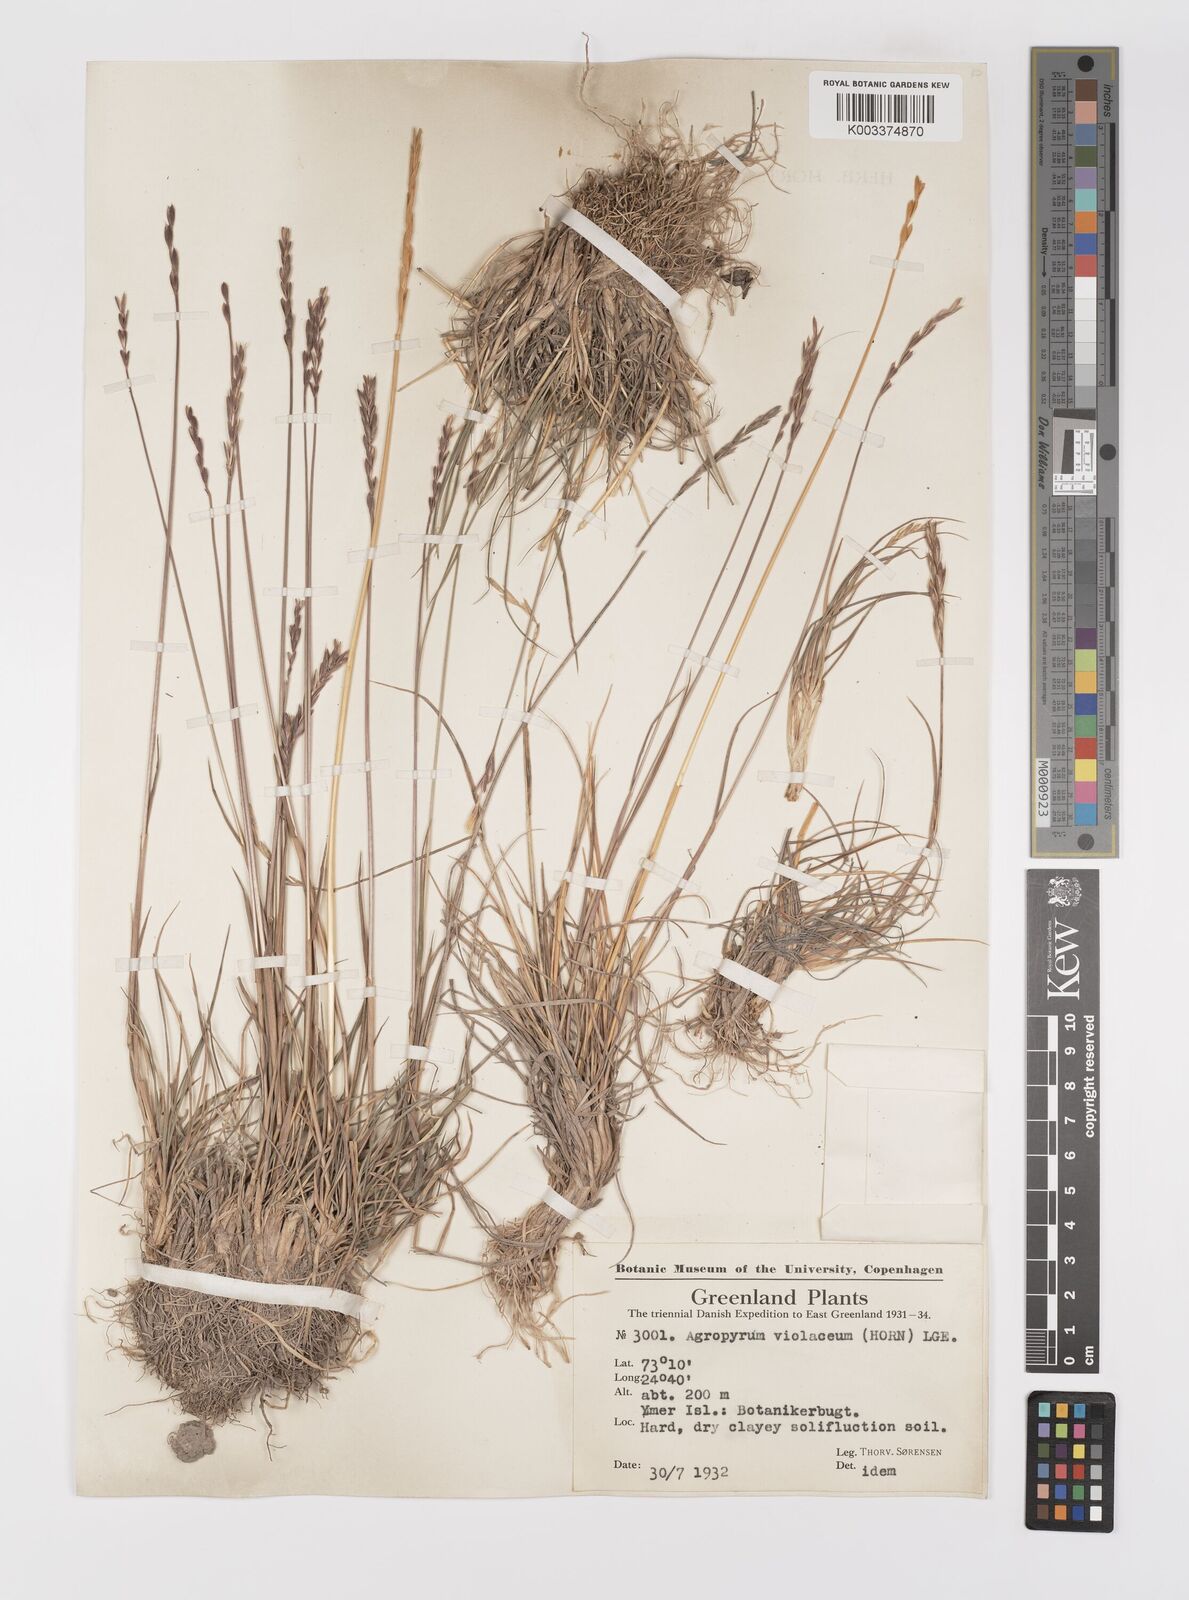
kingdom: Plantae
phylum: Tracheophyta
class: Liliopsida
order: Poales
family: Poaceae
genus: Elymus
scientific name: Elymus violaceus
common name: Arctic wheatgrass
